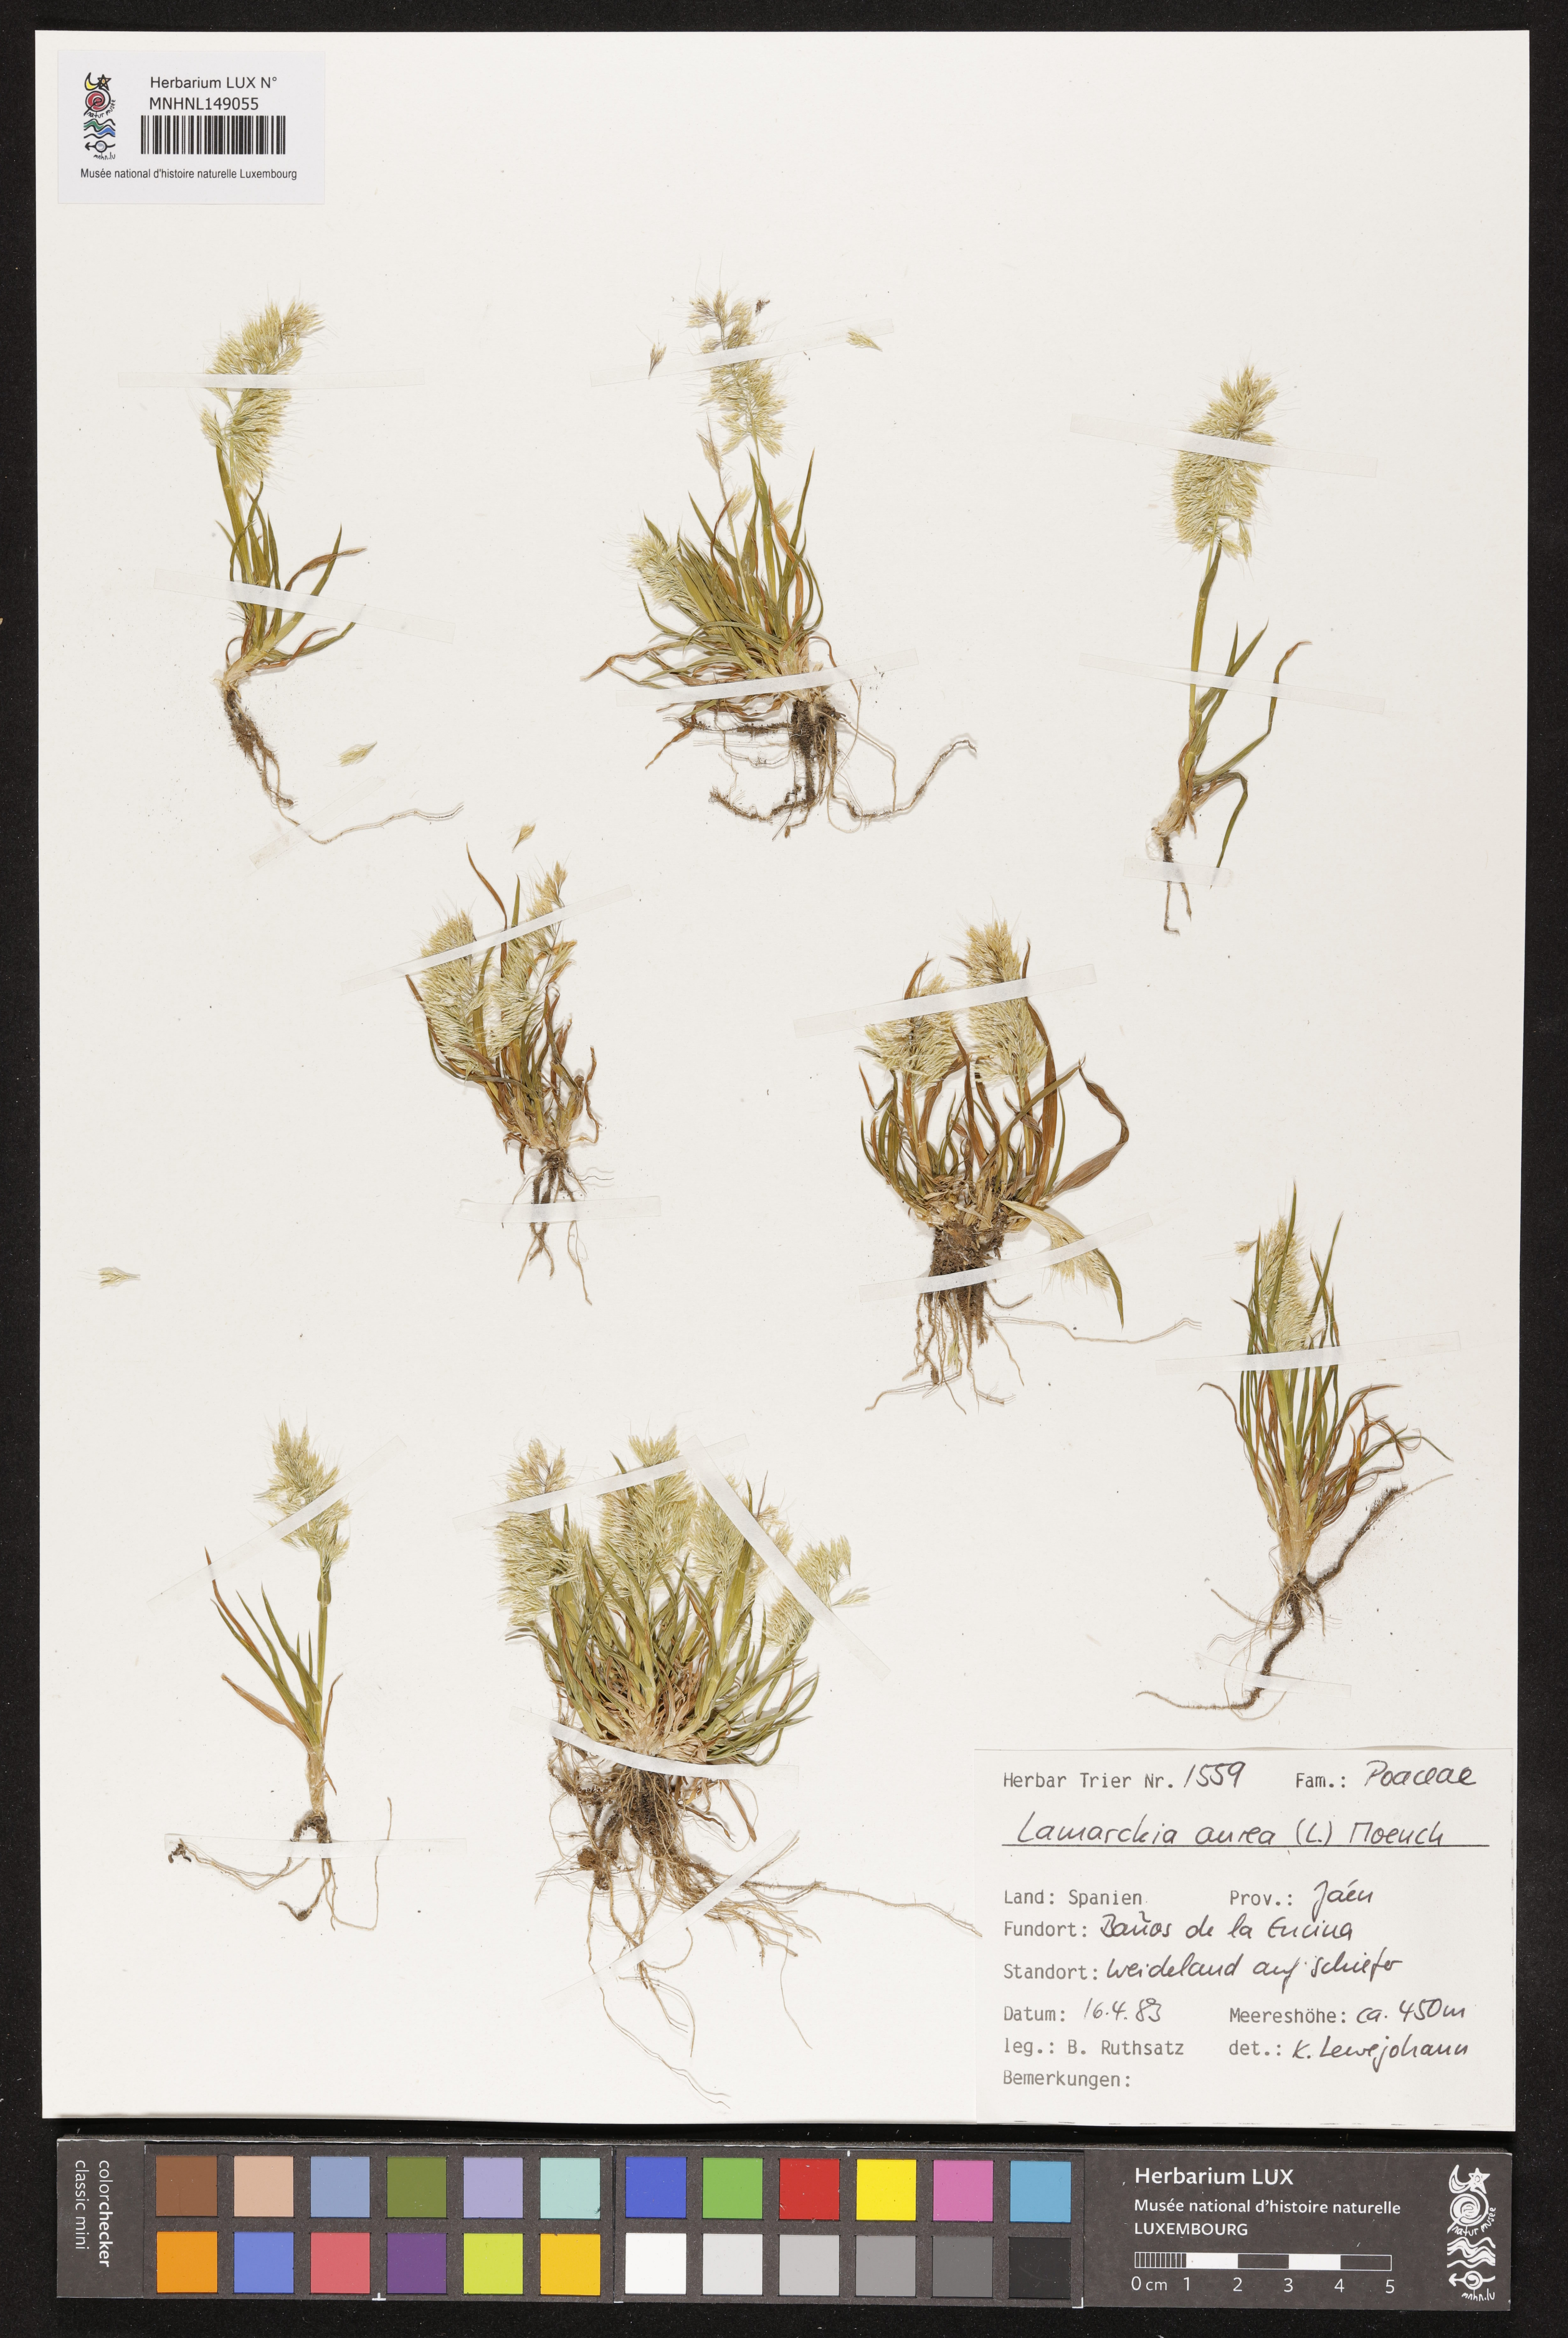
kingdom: Plantae
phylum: Tracheophyta
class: Liliopsida
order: Poales
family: Poaceae
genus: Lamarckia
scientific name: Lamarckia aurea
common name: Golden dog's-tail
